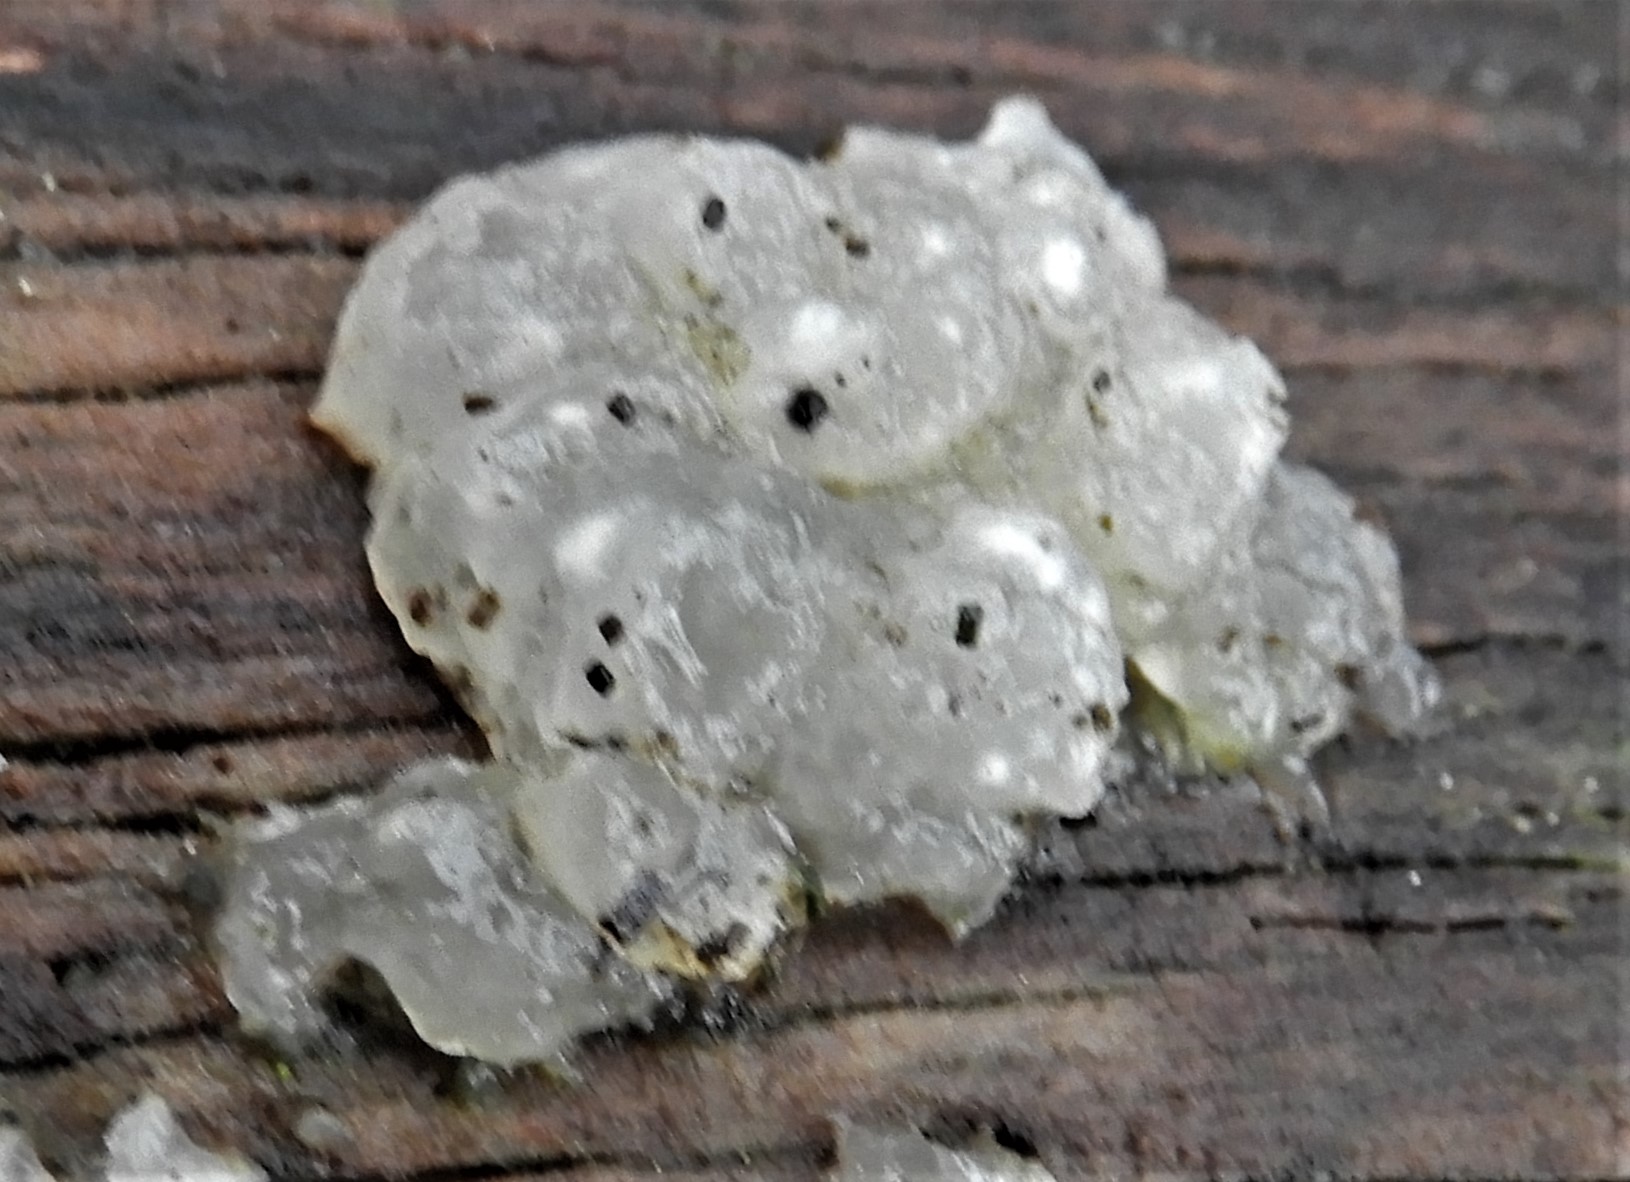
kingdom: Fungi
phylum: Basidiomycota
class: Agaricomycetes
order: Auriculariales
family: Hyaloriaceae
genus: Myxarium
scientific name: Myxarium nucleatum
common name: klar bævretop
